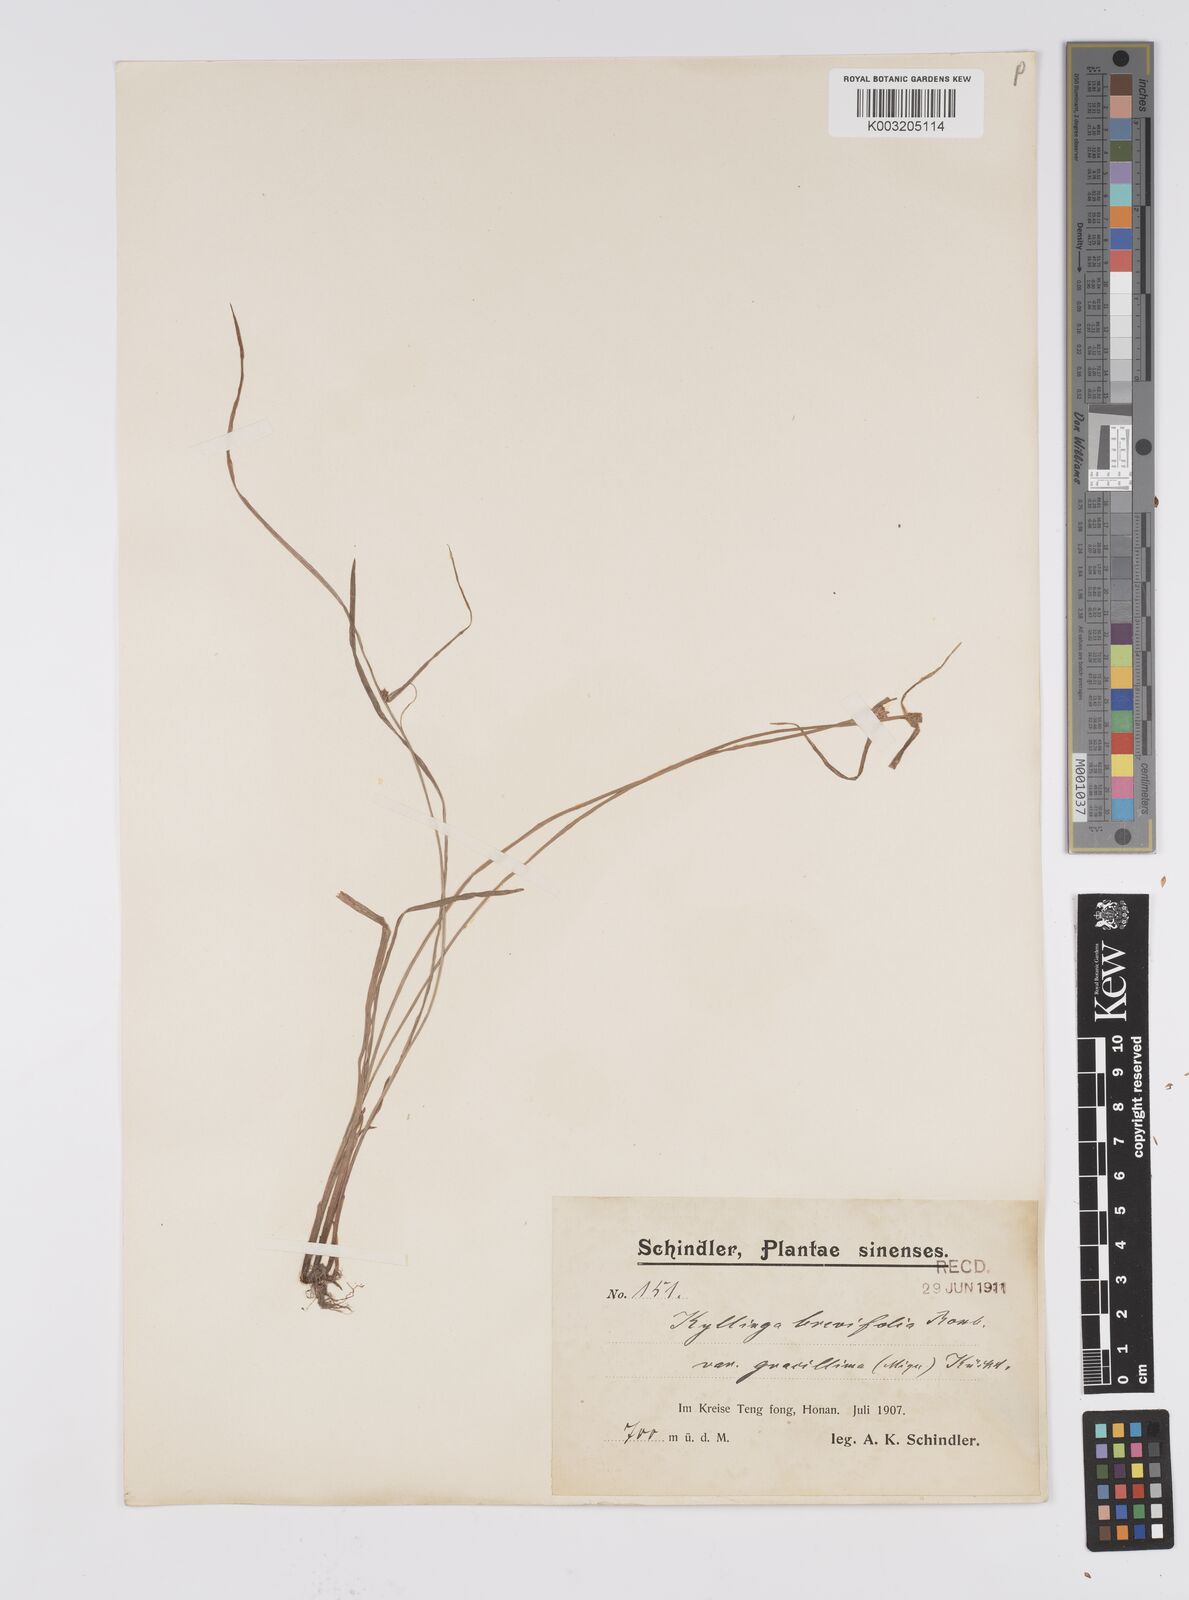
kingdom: Plantae
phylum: Tracheophyta
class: Liliopsida
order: Poales
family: Cyperaceae
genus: Cyperus
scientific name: Cyperus brevifolius
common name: Globe kyllinga
